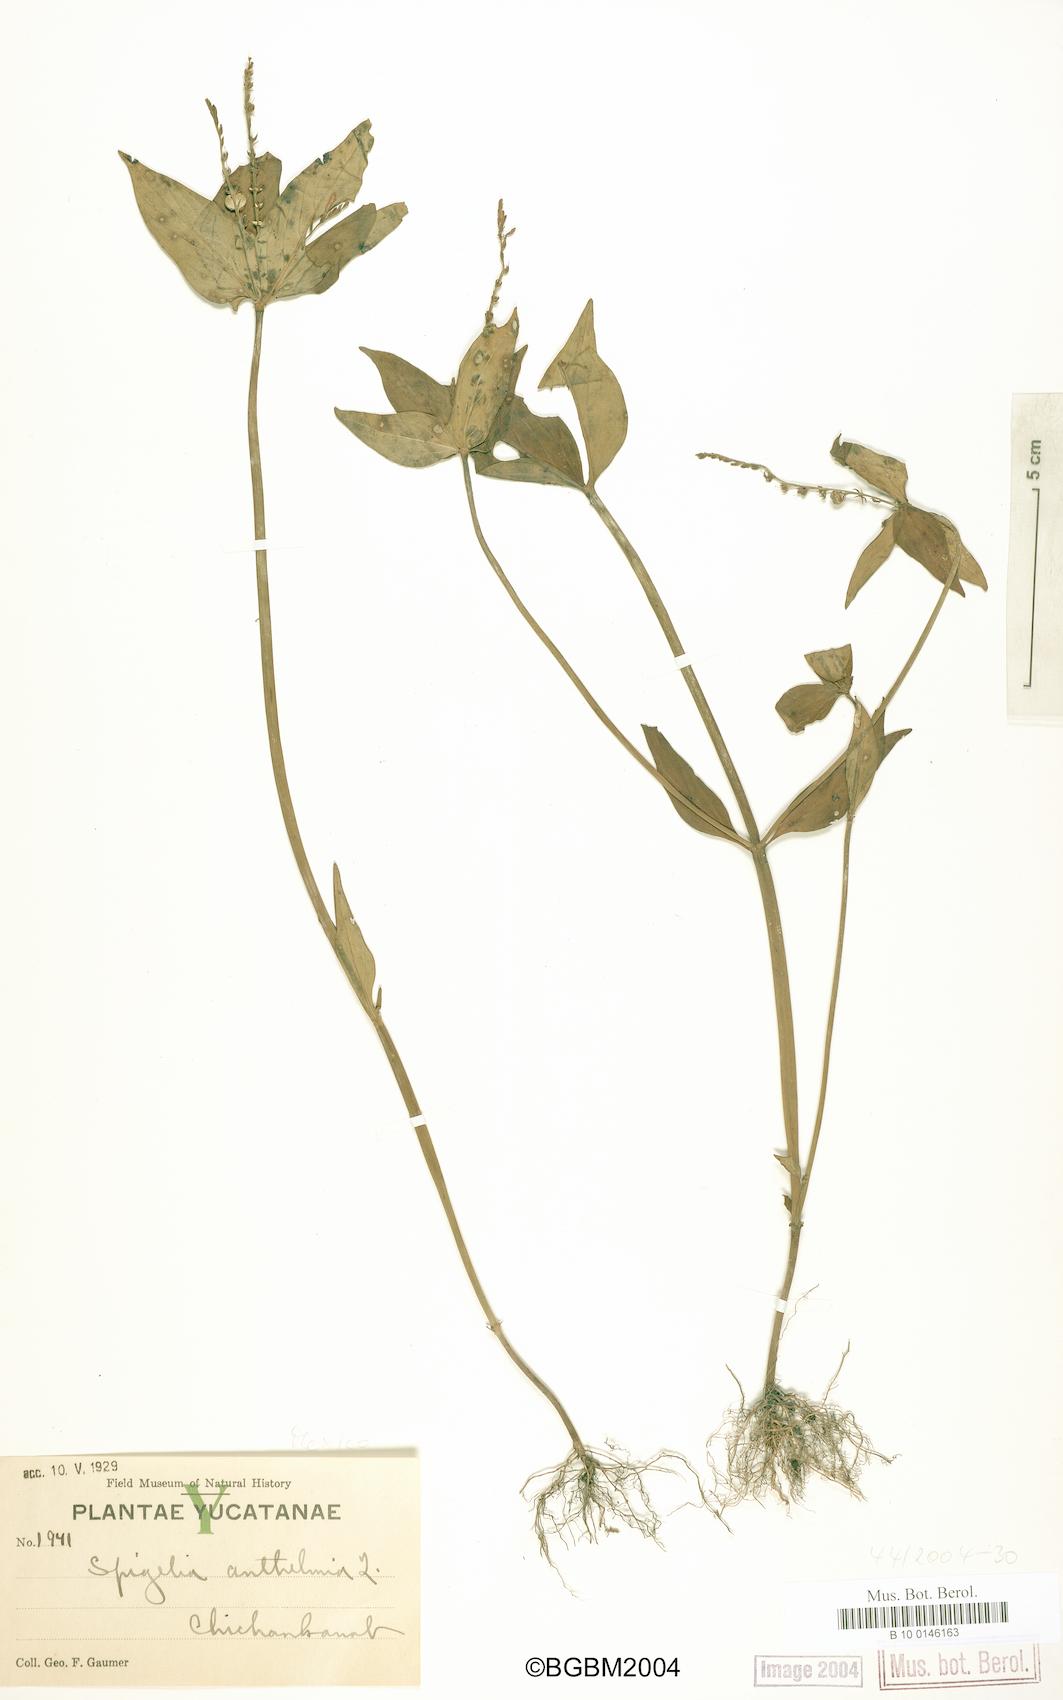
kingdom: Plantae
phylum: Tracheophyta
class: Magnoliopsida
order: Gentianales
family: Loganiaceae
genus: Spigelia
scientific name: Spigelia anthelmia
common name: West indian-pink
